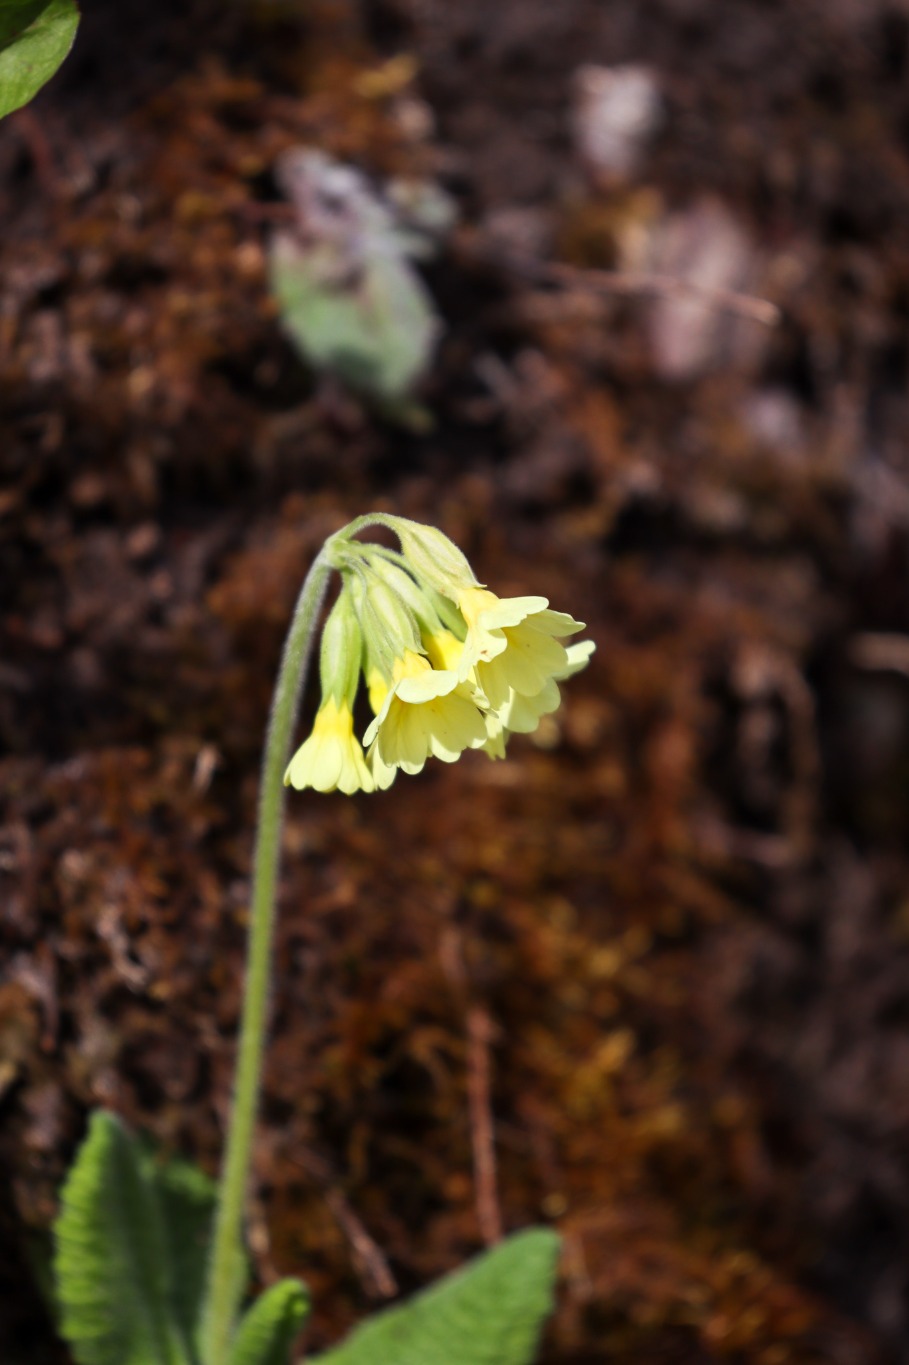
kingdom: Plantae
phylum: Tracheophyta
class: Magnoliopsida
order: Ericales
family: Primulaceae
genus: Primula
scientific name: Primula elatior
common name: Fladkravet kodriver
